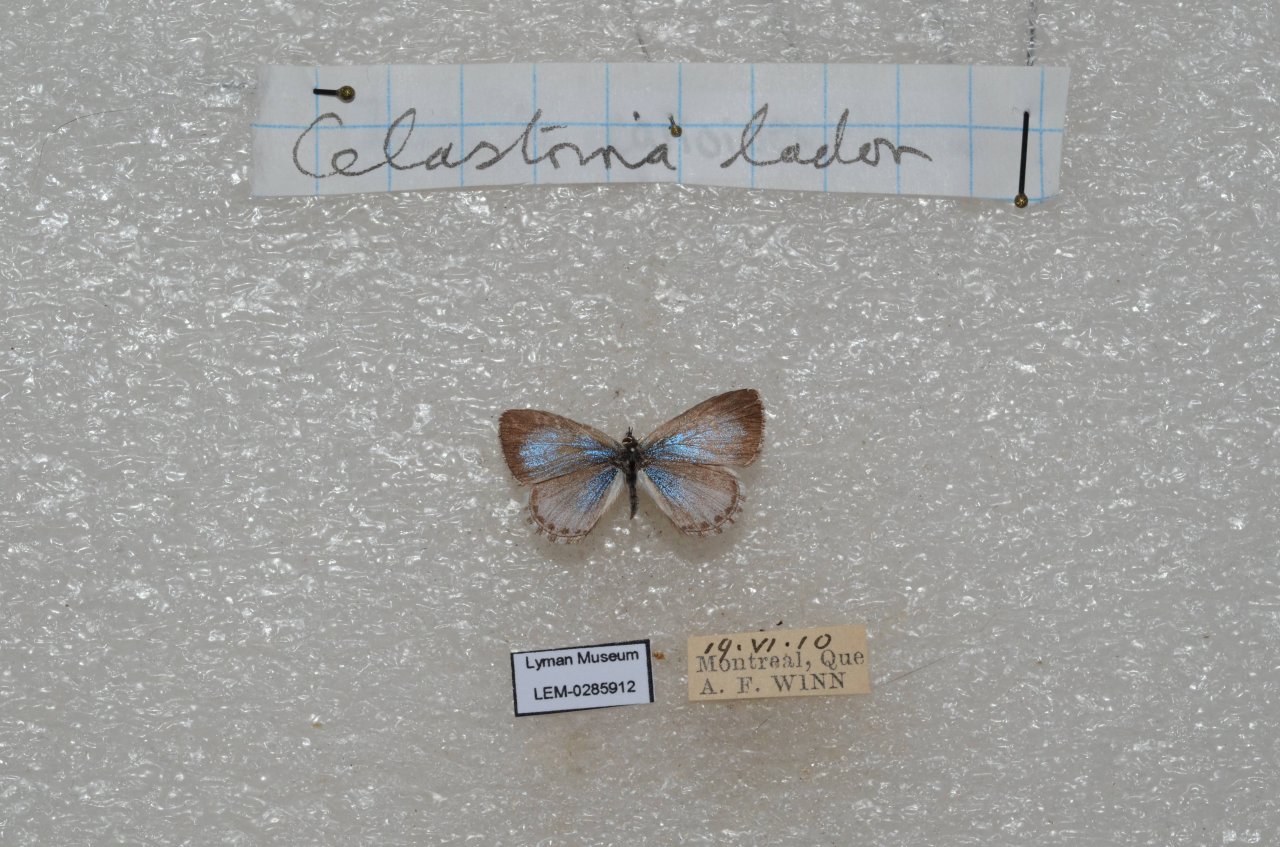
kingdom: Animalia
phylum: Arthropoda
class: Insecta
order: Lepidoptera
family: Lycaenidae
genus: Celastrina
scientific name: Celastrina lucia
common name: Northern Spring Azure
